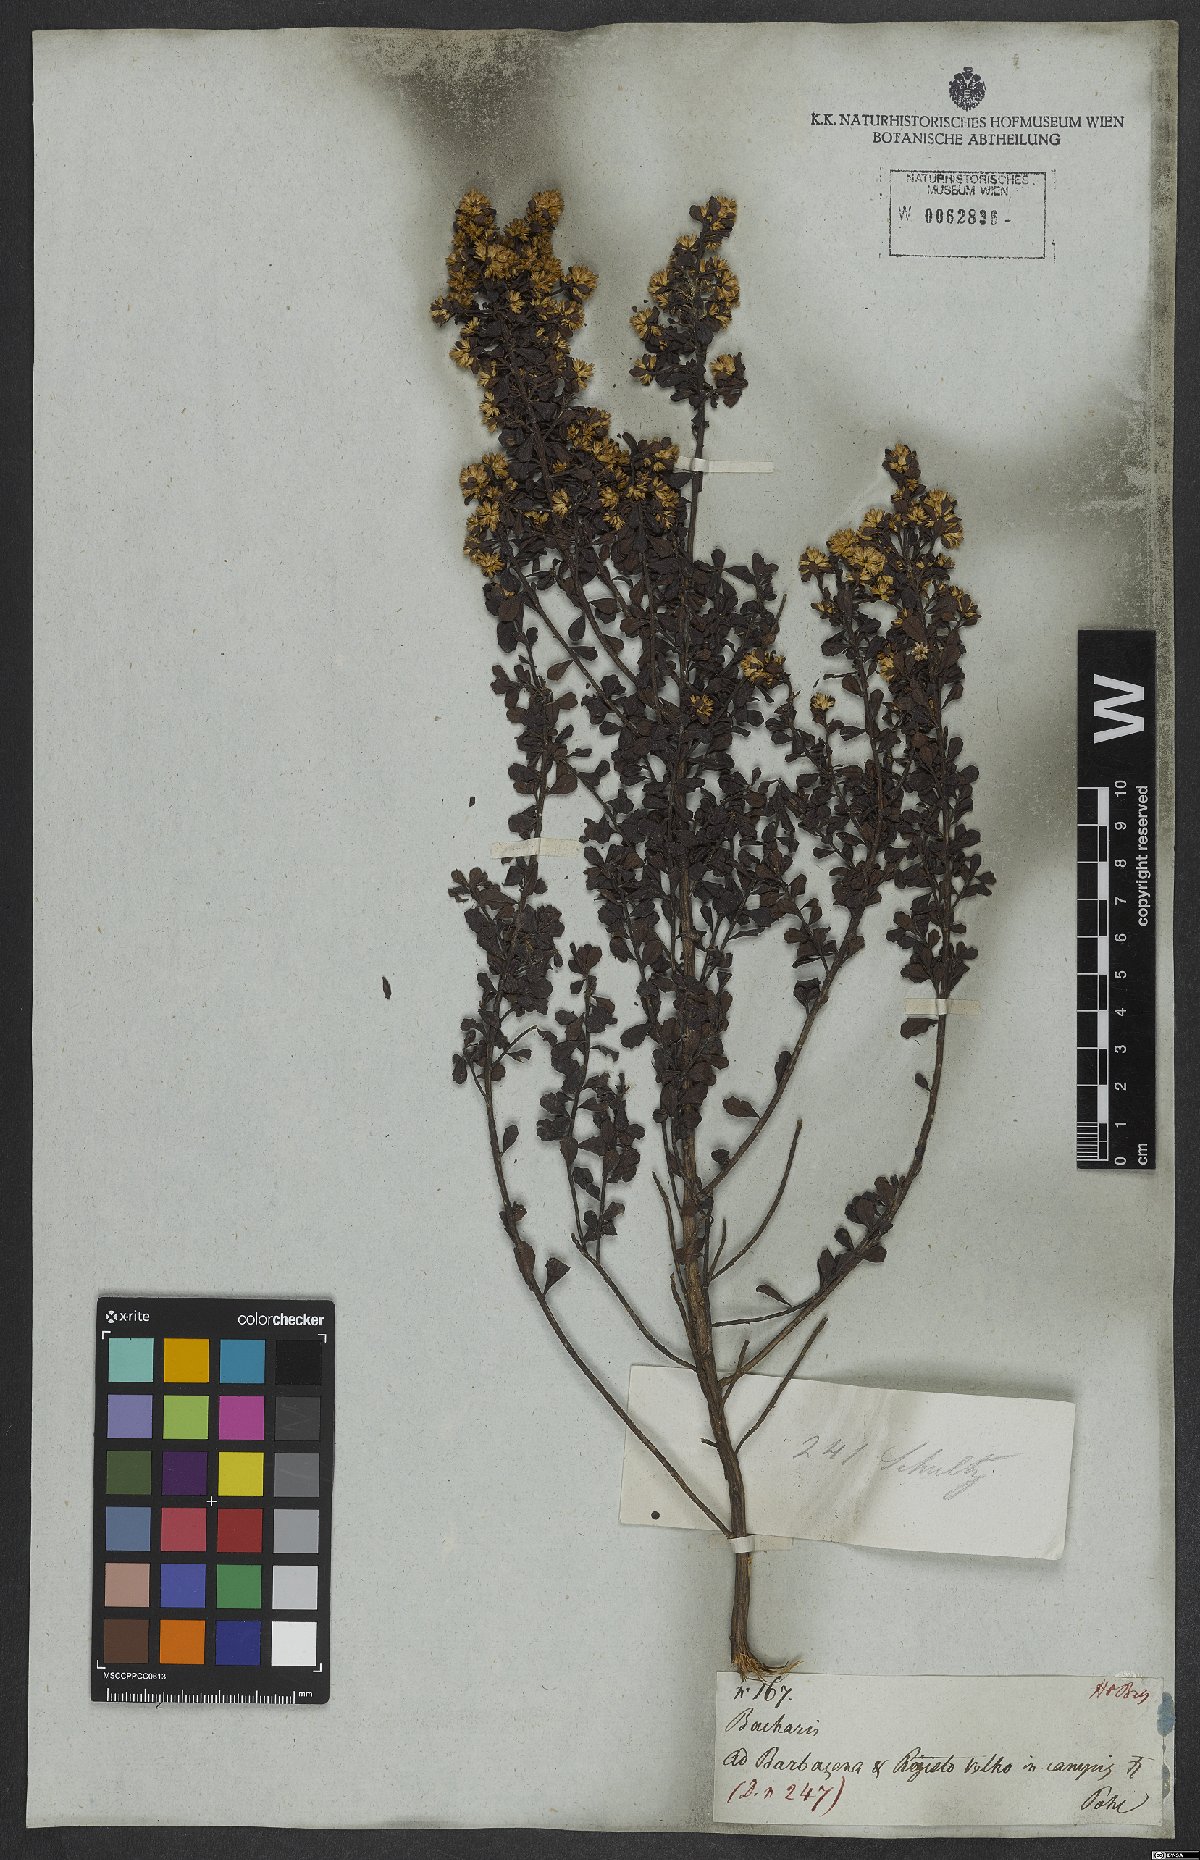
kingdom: Plantae
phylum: Tracheophyta
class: Magnoliopsida
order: Asterales
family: Asteraceae
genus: Baccharis
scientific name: Baccharis
